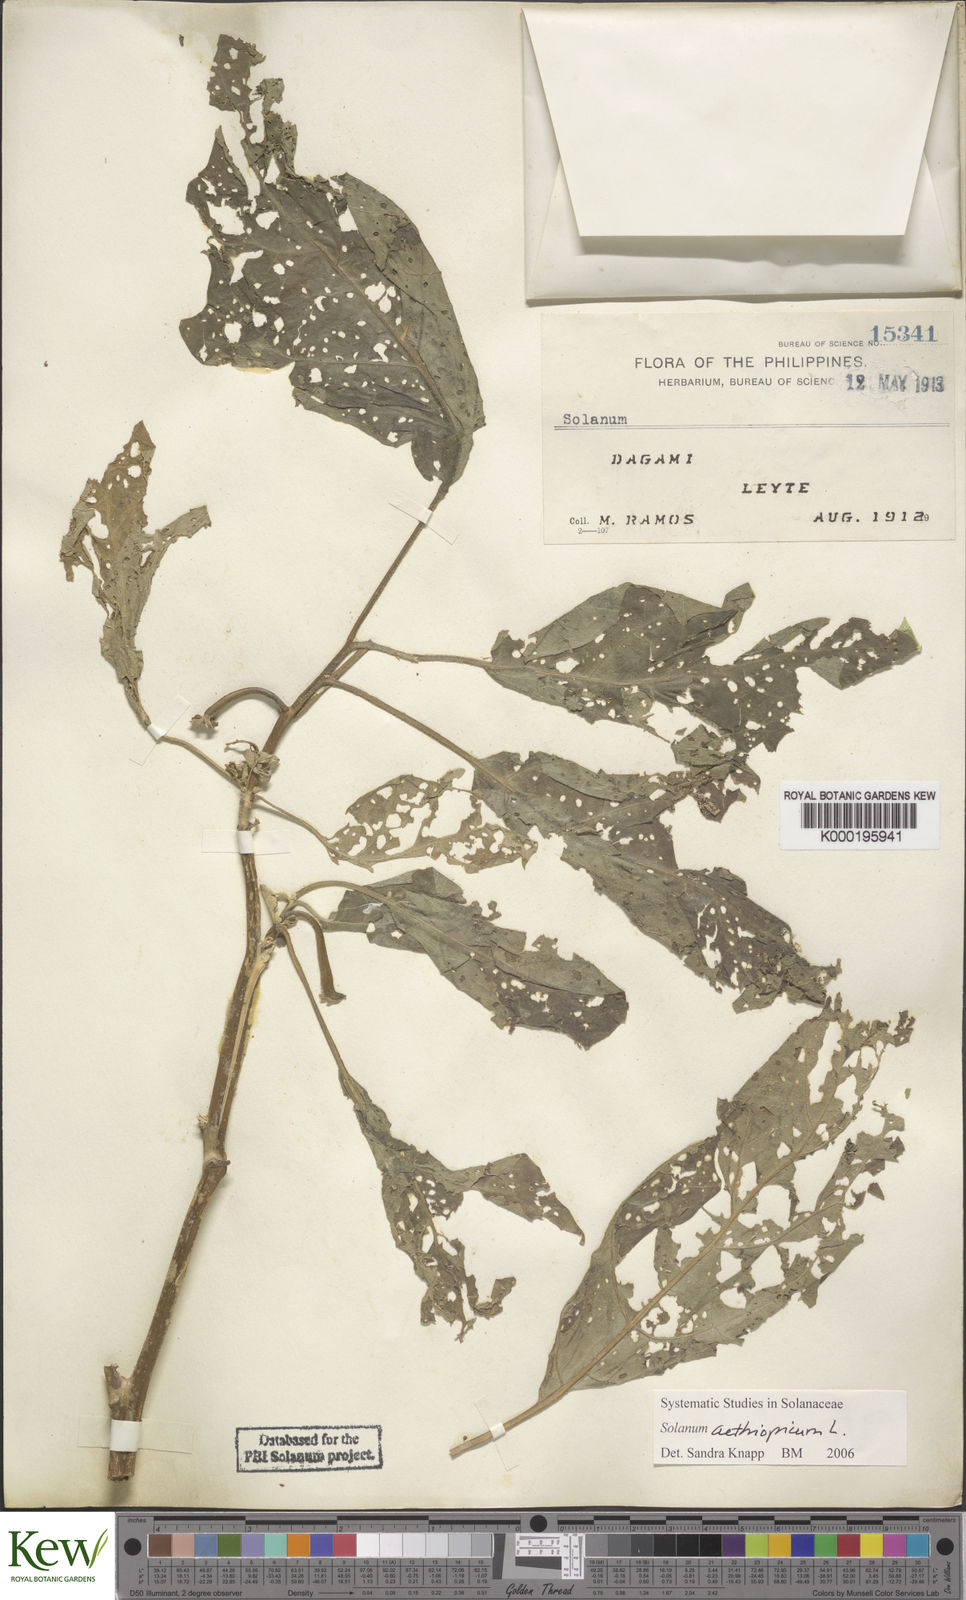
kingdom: Plantae
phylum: Tracheophyta
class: Magnoliopsida
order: Solanales
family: Solanaceae
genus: Solanum
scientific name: Solanum aethiopicum
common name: Gilo
